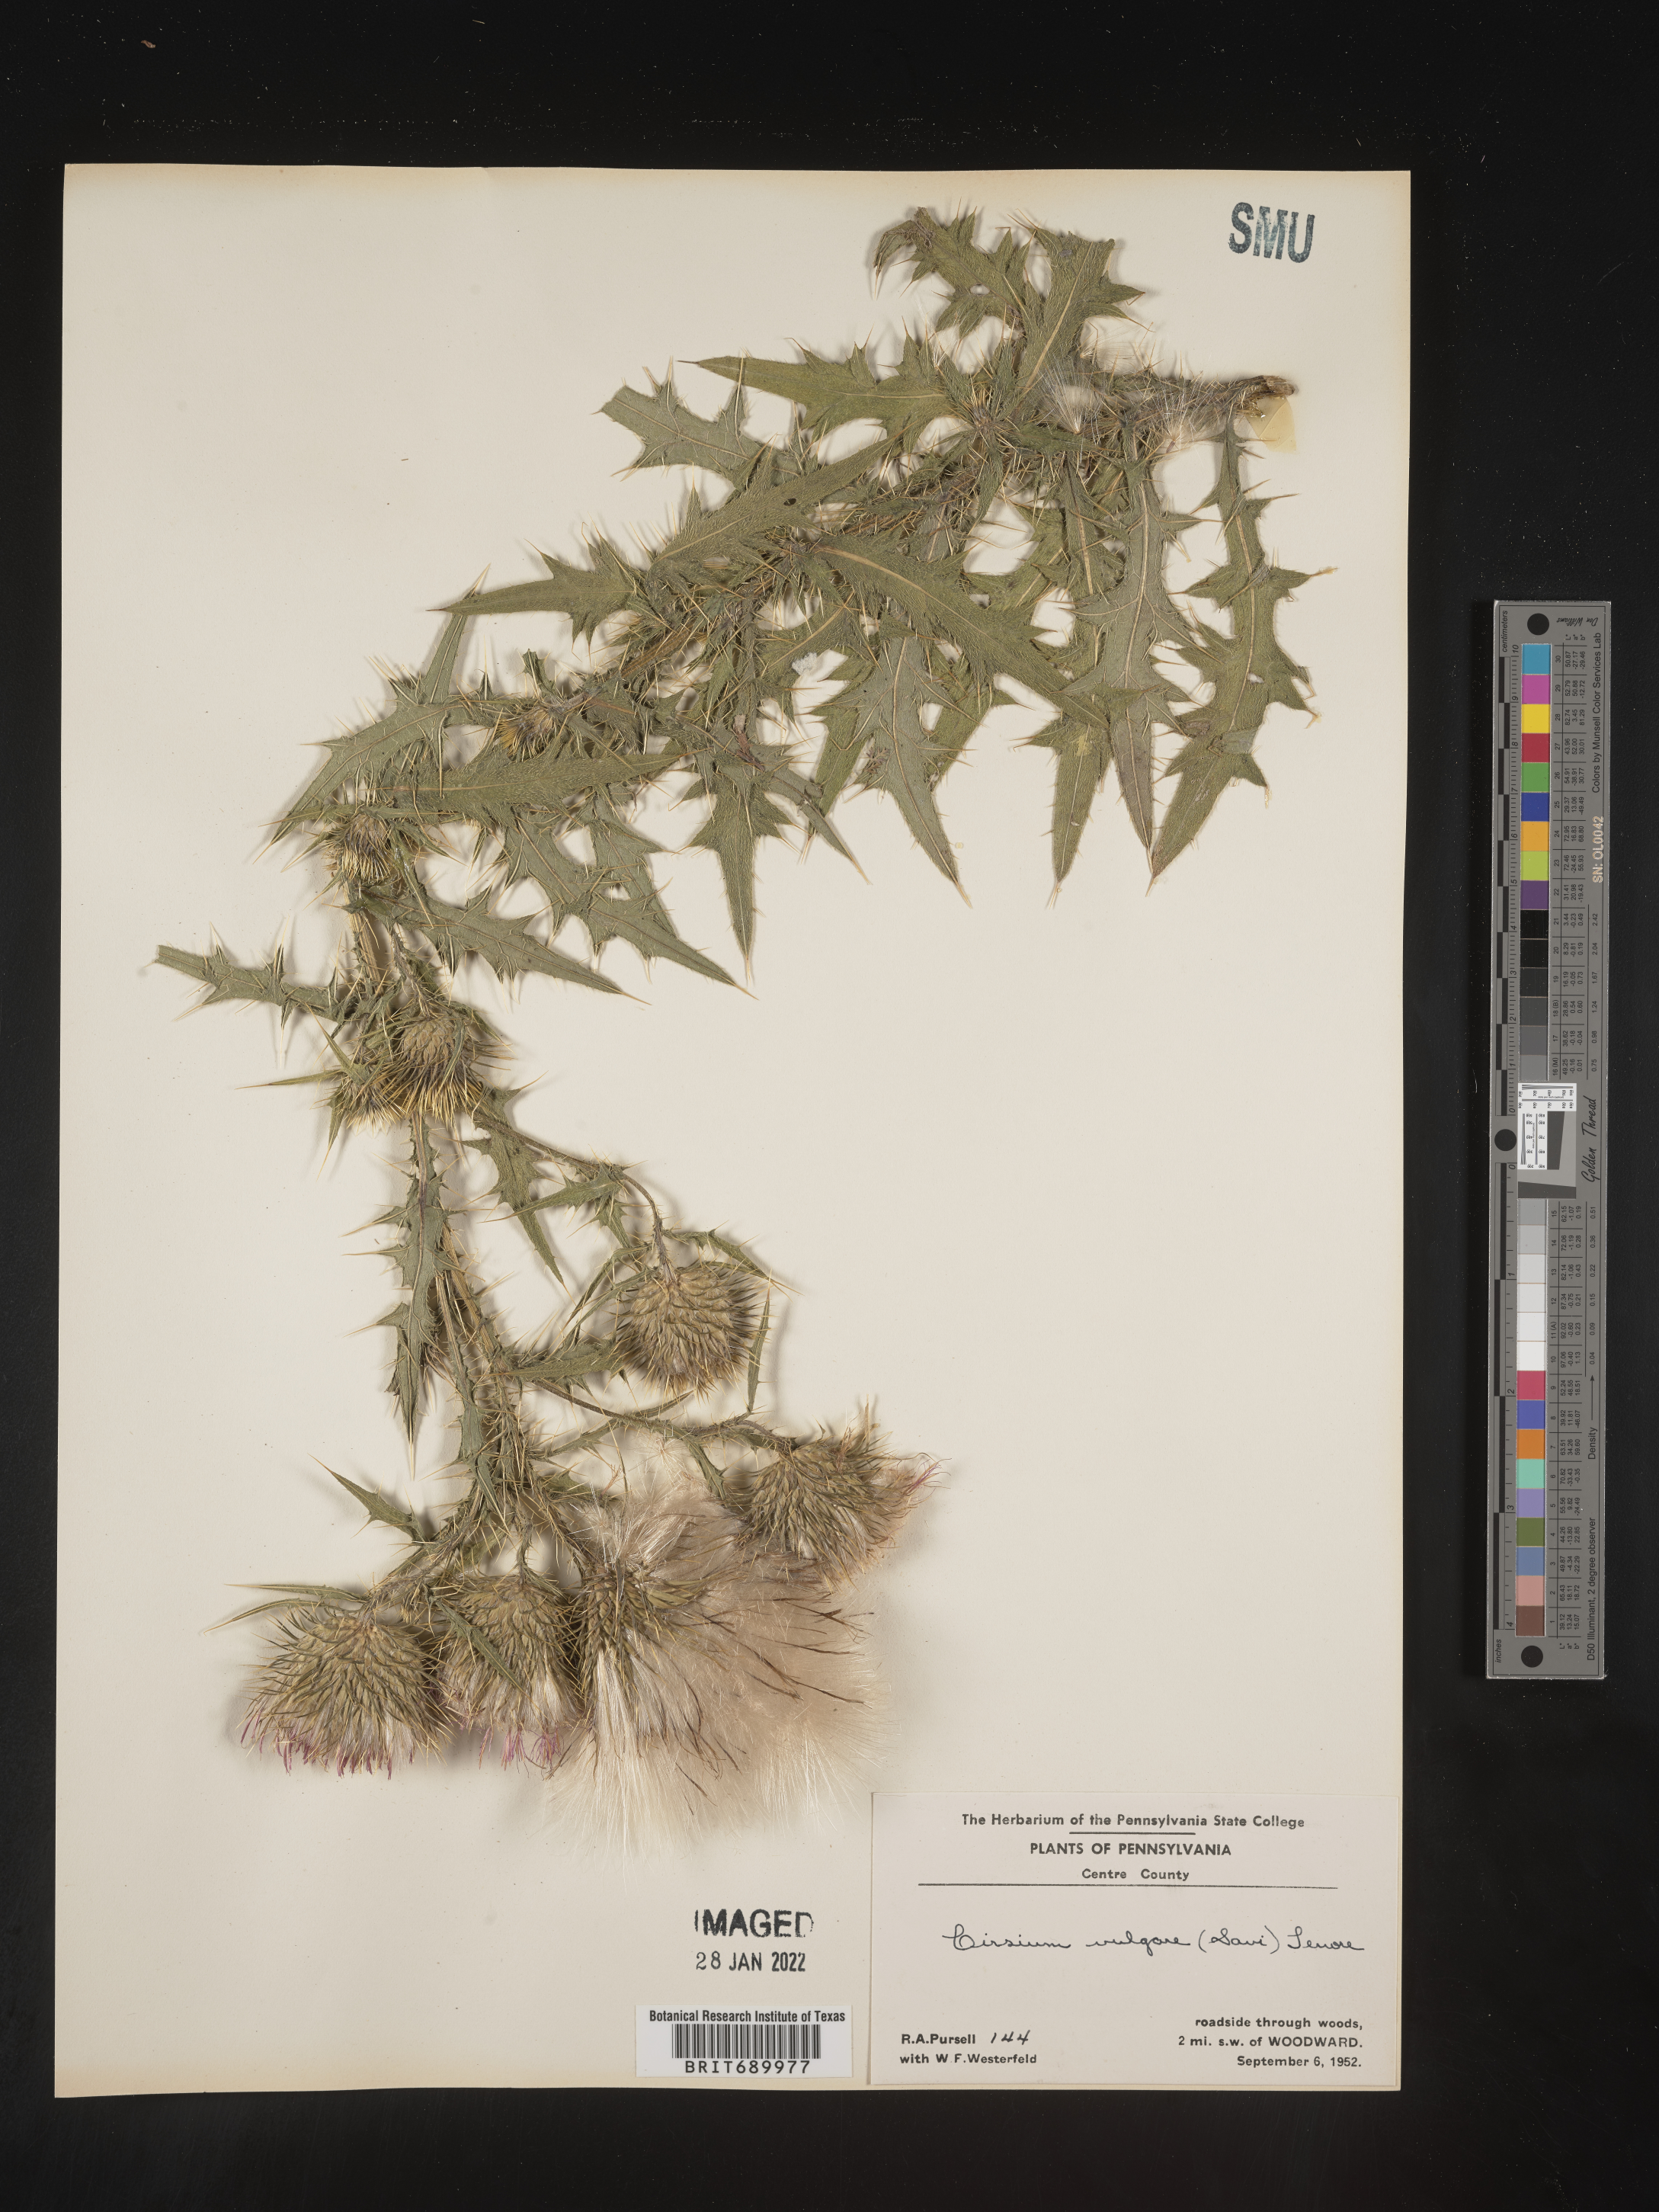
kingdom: Plantae
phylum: Tracheophyta
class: Magnoliopsida
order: Asterales
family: Asteraceae
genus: Cirsium
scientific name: Cirsium vulgare
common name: Bull thistle
